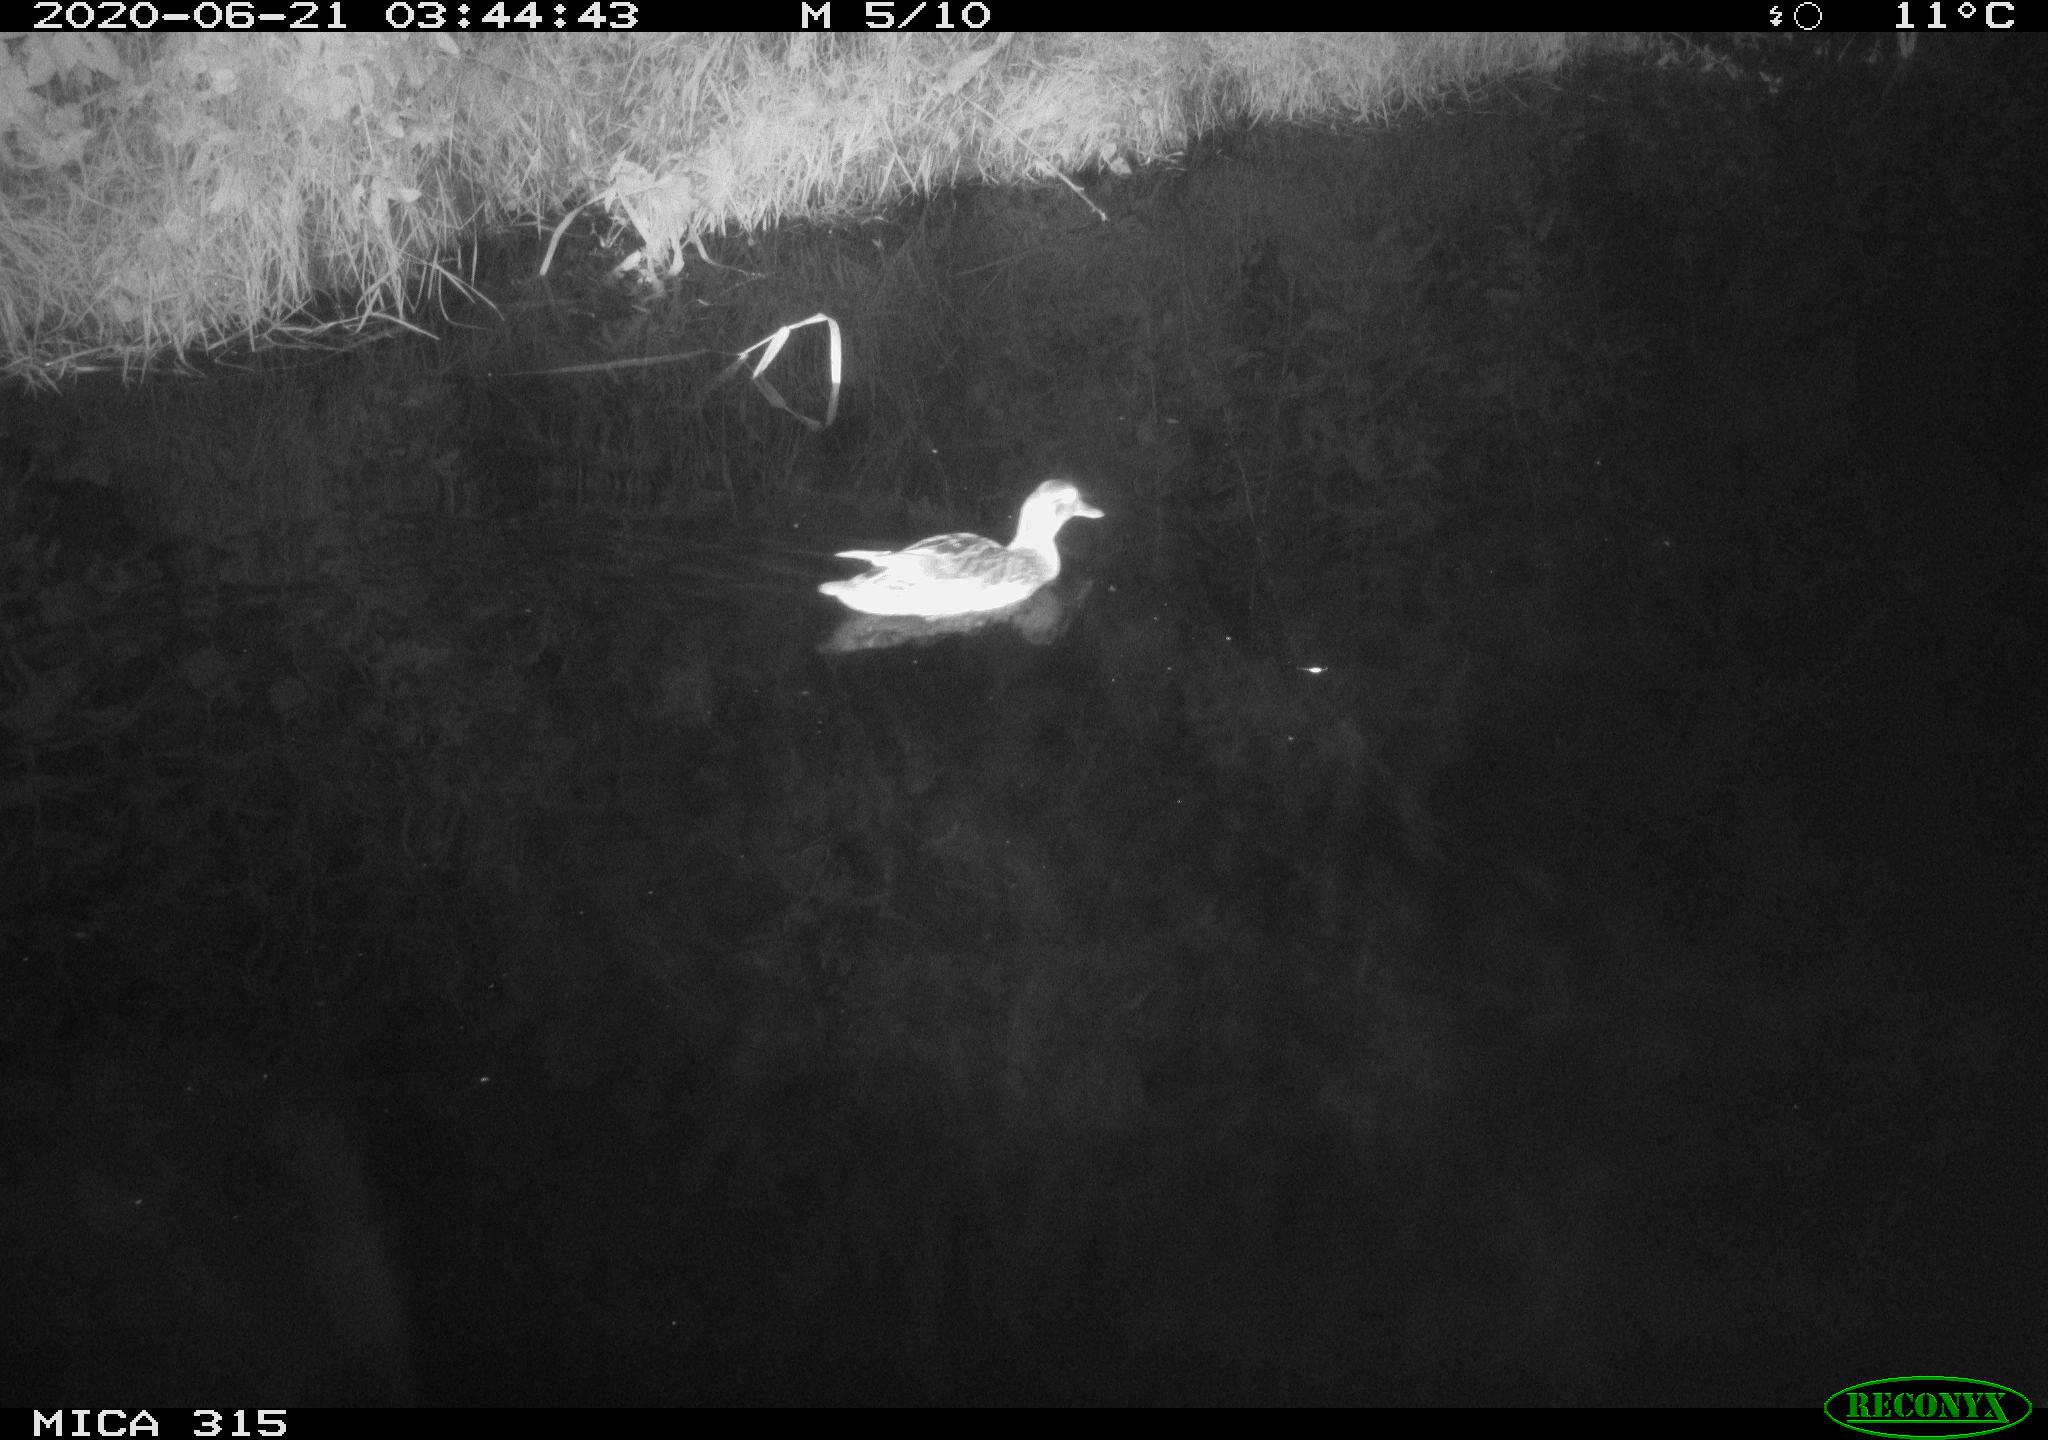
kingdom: Animalia
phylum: Chordata
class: Aves
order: Anseriformes
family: Anatidae
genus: Anas
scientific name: Anas platyrhynchos
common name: Mallard
